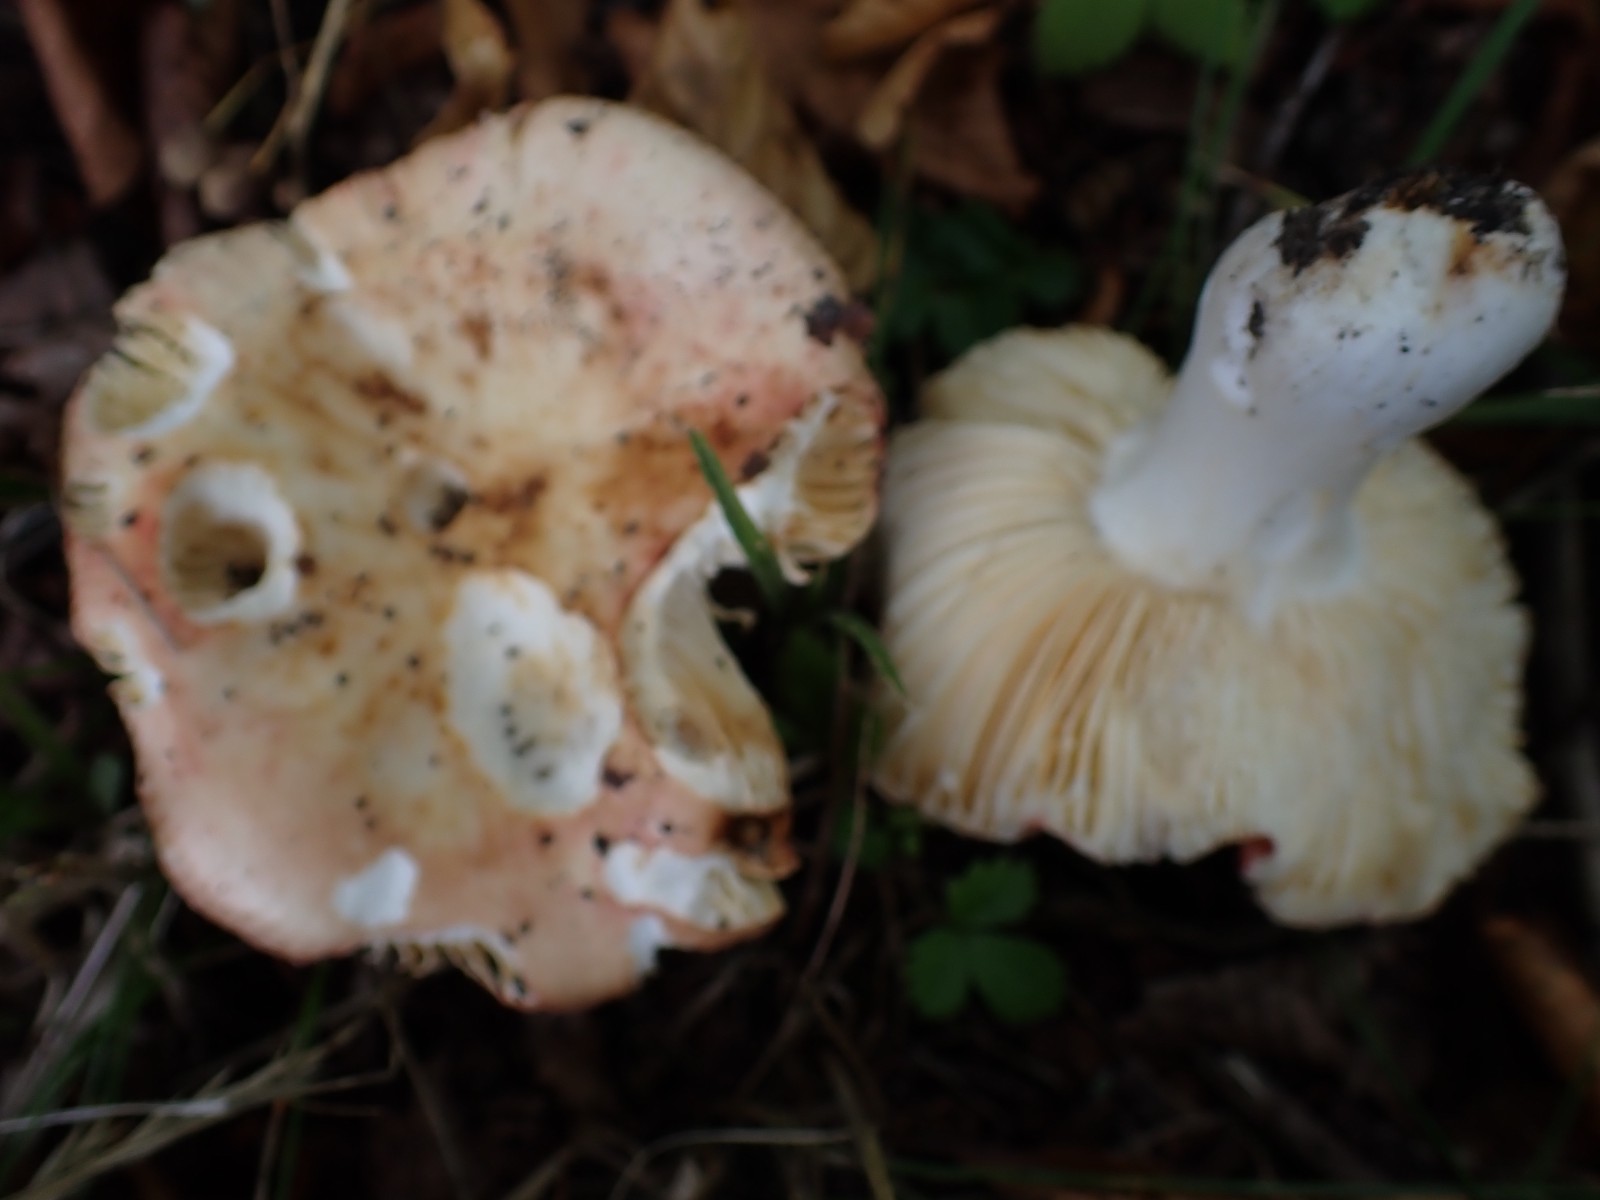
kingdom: Fungi
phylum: Basidiomycota
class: Agaricomycetes
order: Russulales
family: Russulaceae
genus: Russula
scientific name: Russula
